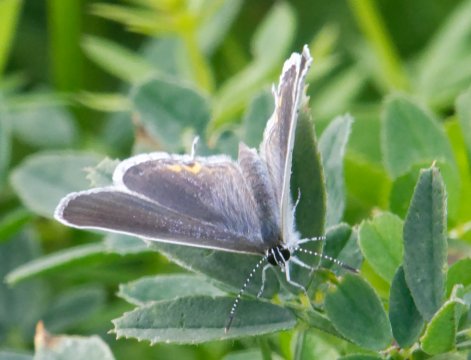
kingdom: Animalia
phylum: Arthropoda
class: Insecta
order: Lepidoptera
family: Lycaenidae
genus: Elkalyce
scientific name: Elkalyce comyntas
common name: Eastern Tailed-Blue
